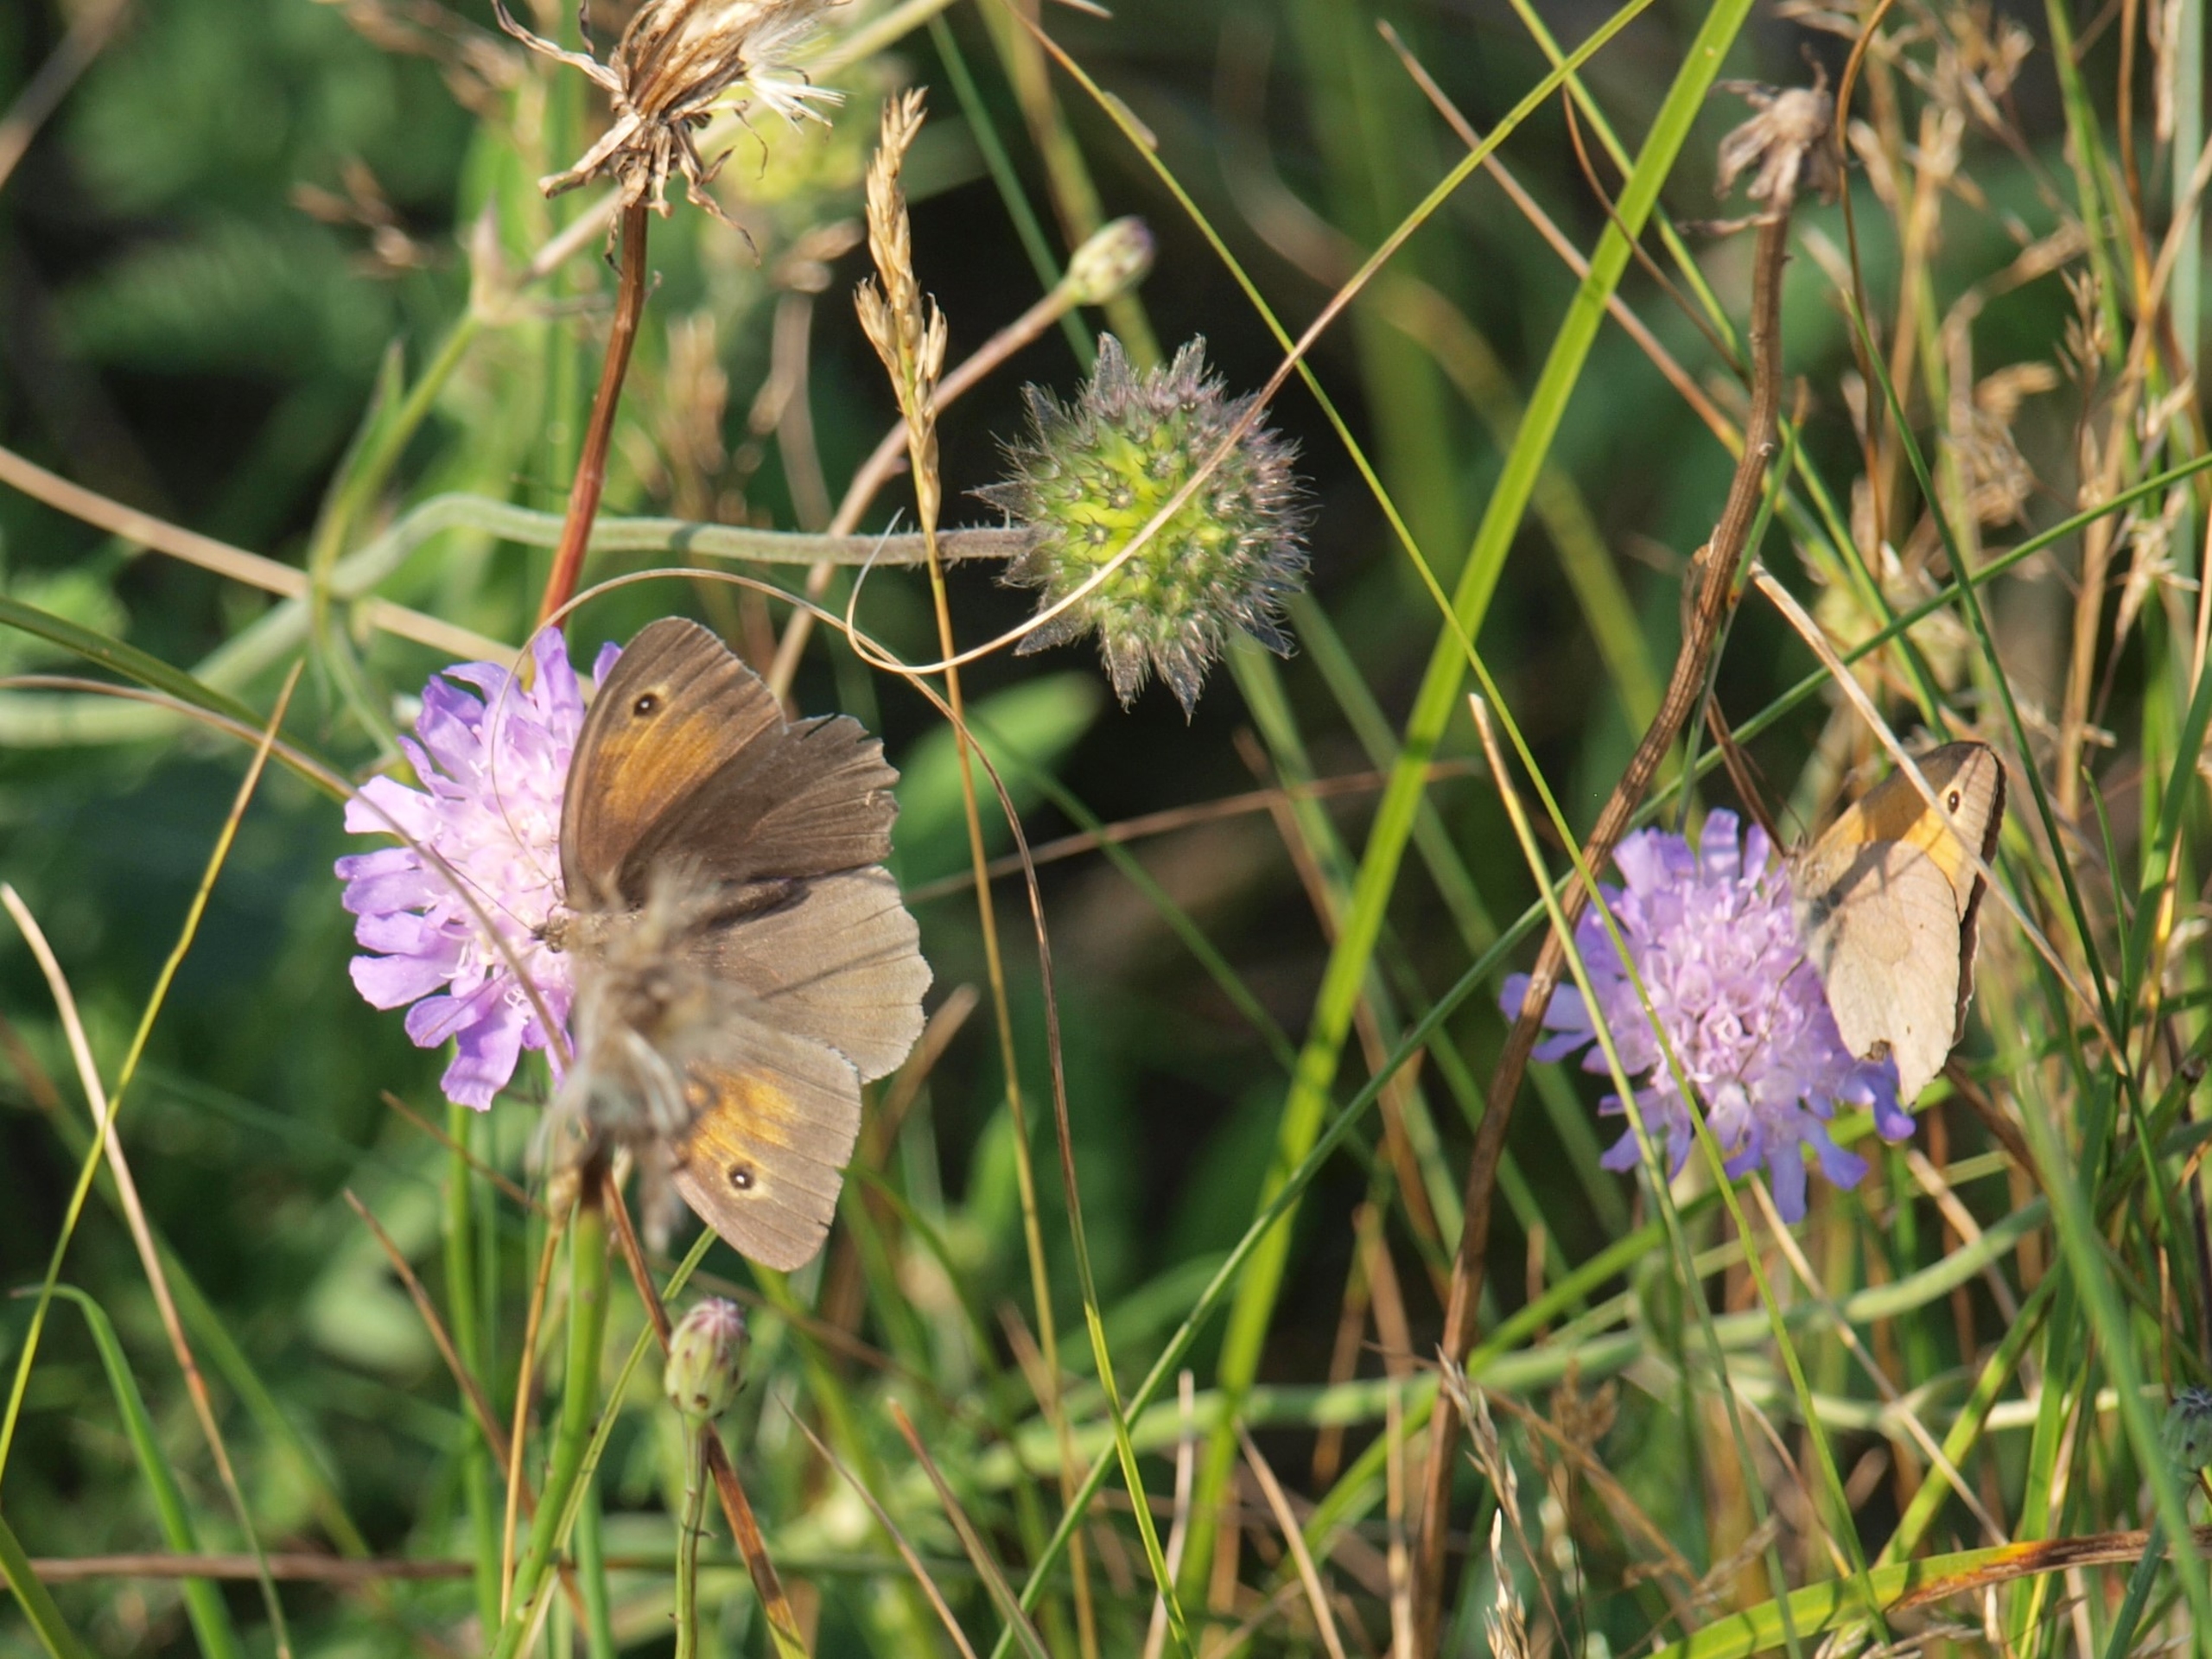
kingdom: Animalia
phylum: Arthropoda
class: Insecta
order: Lepidoptera
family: Nymphalidae
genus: Maniola
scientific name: Maniola jurtina
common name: Græsrandøje
